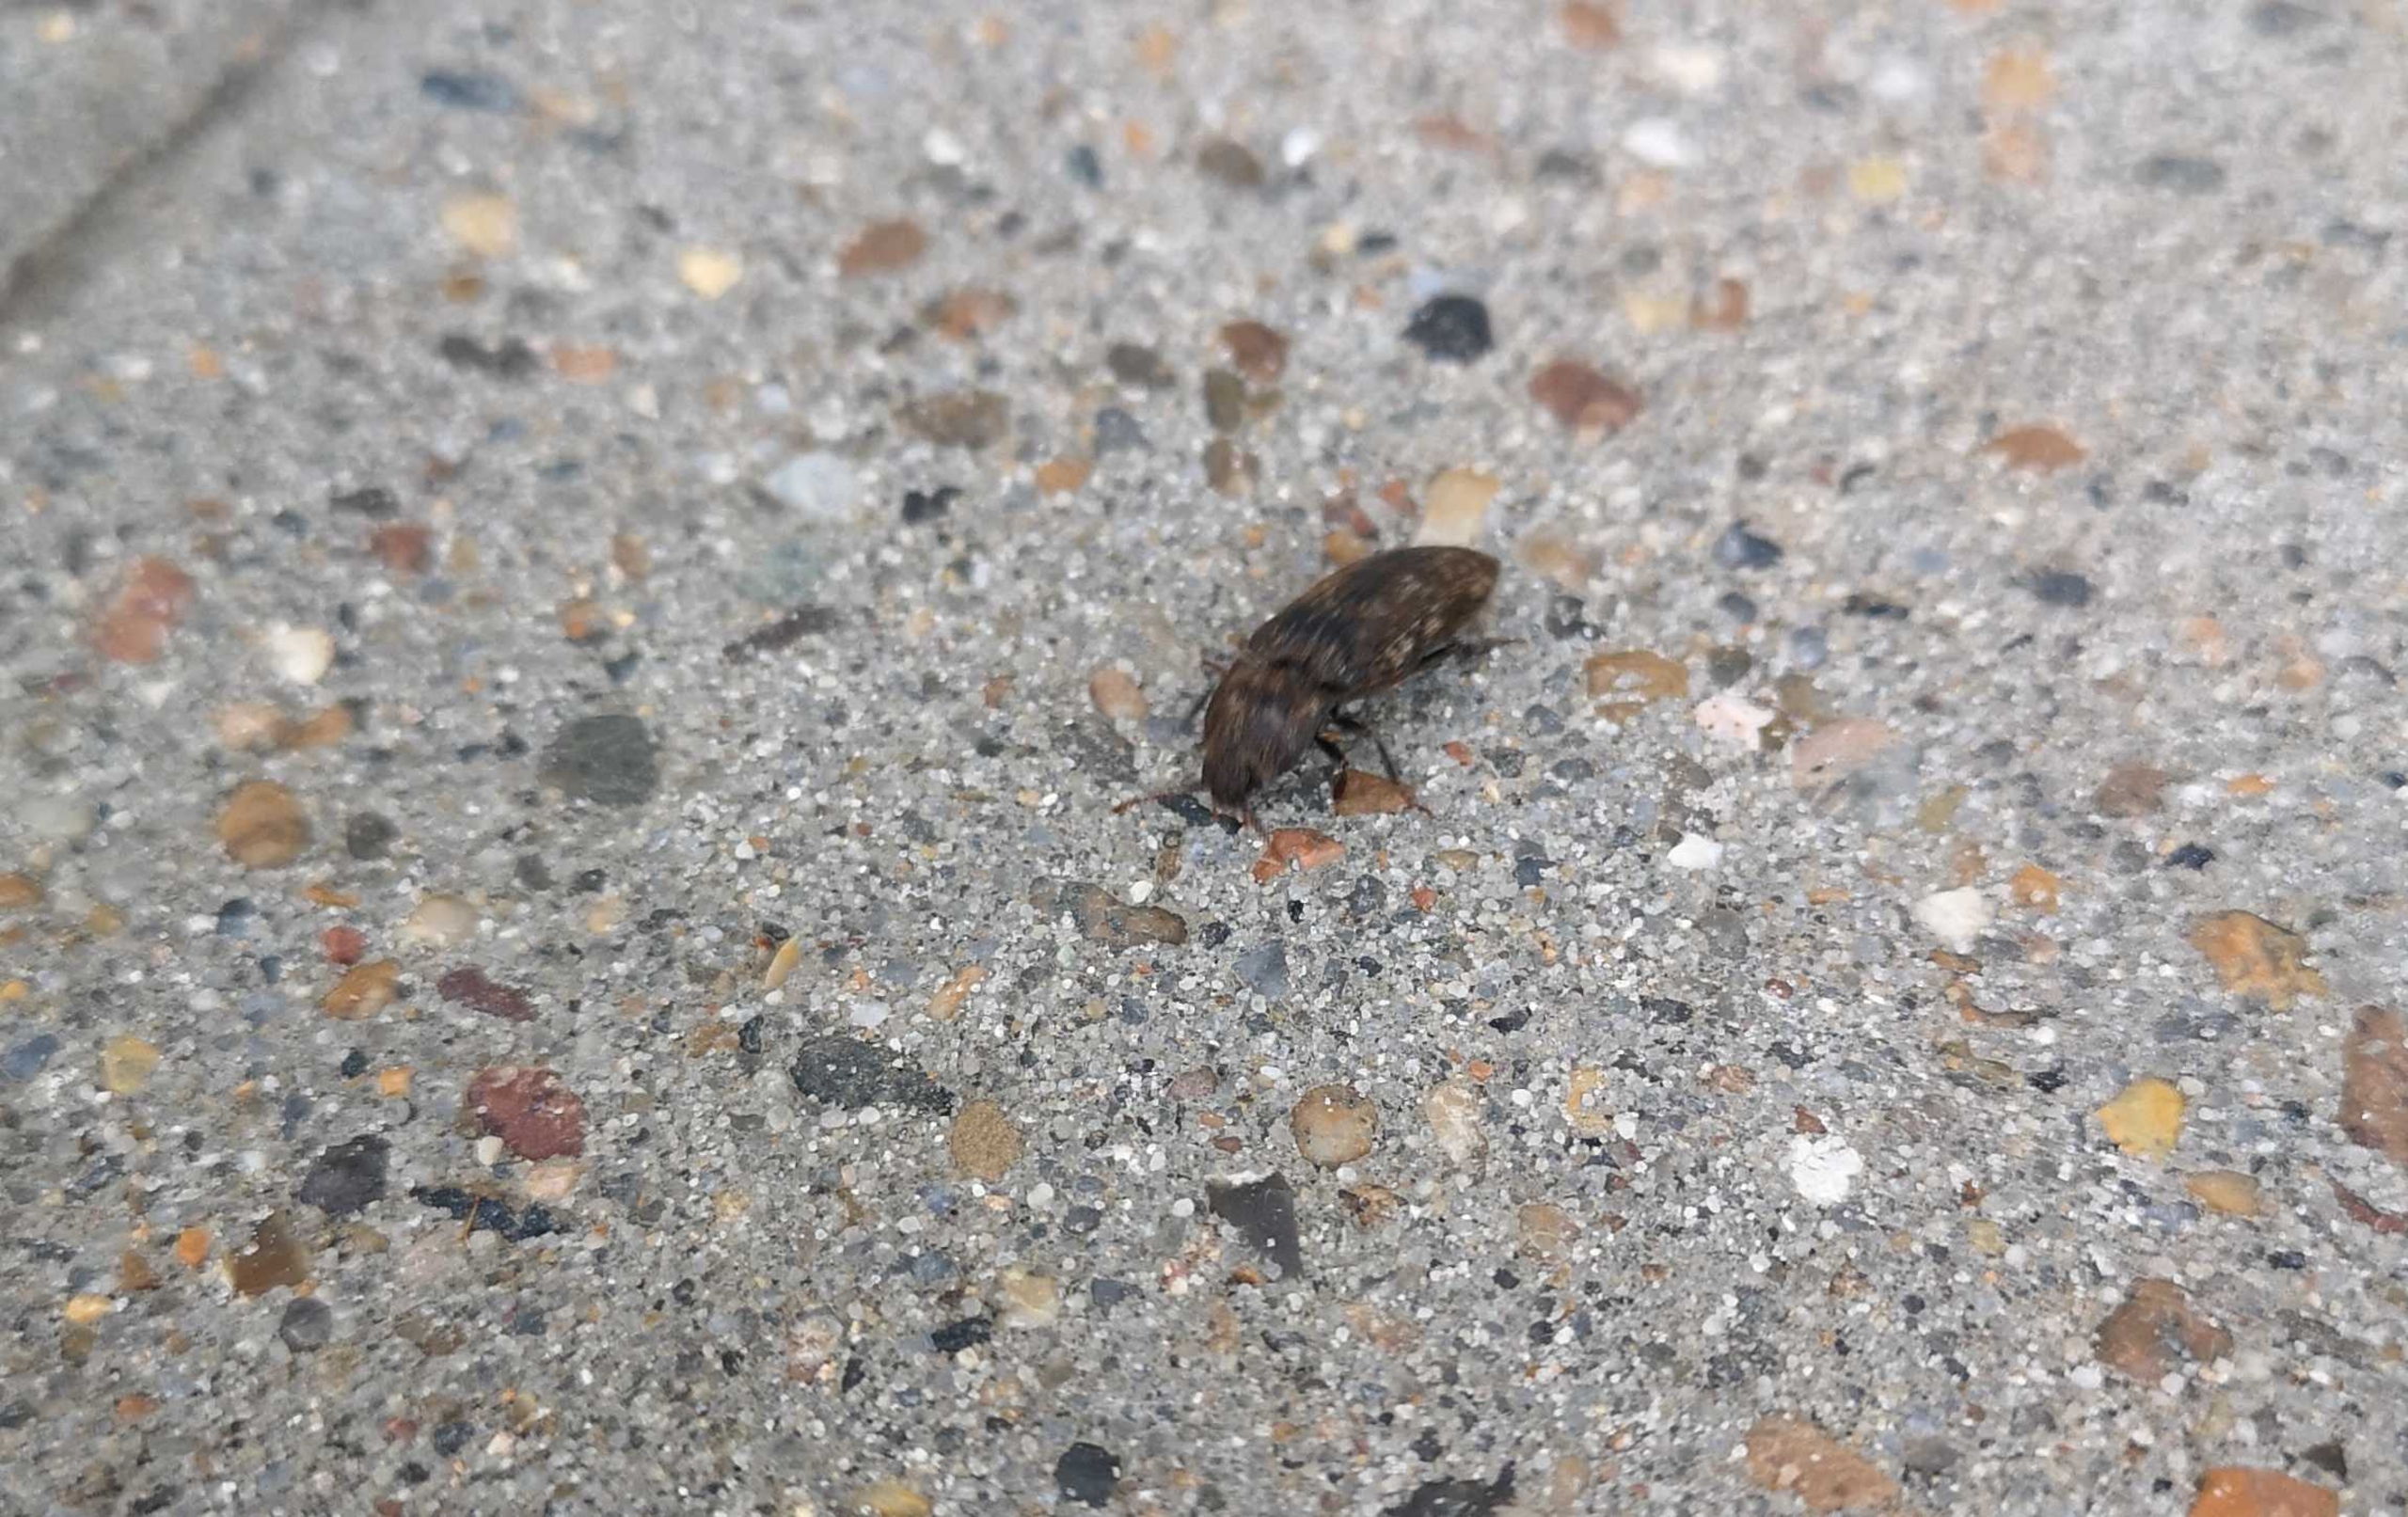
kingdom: Animalia
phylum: Arthropoda
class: Insecta
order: Coleoptera
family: Elateridae
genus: Agrypnus
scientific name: Agrypnus murinus
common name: Musegrå smælder
